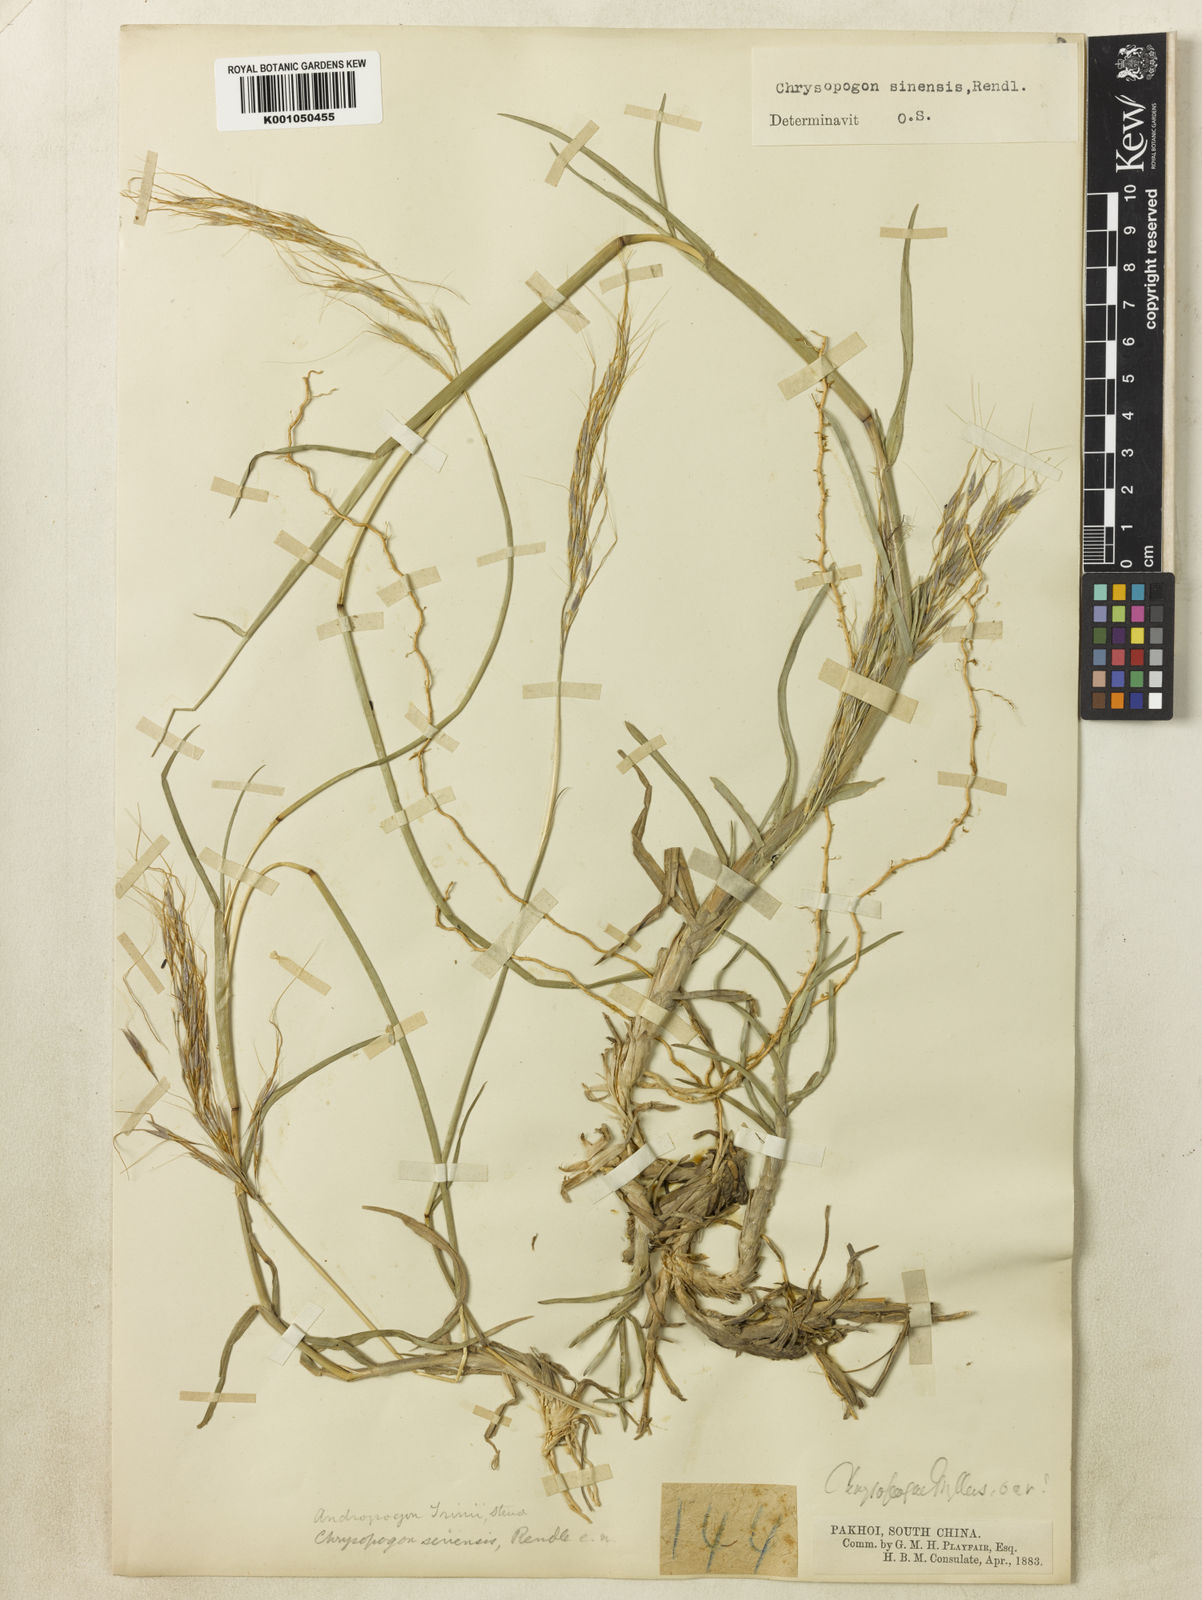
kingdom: Plantae
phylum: Tracheophyta
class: Liliopsida
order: Poales
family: Poaceae
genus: Chrysopogon
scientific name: Chrysopogon orientalis
